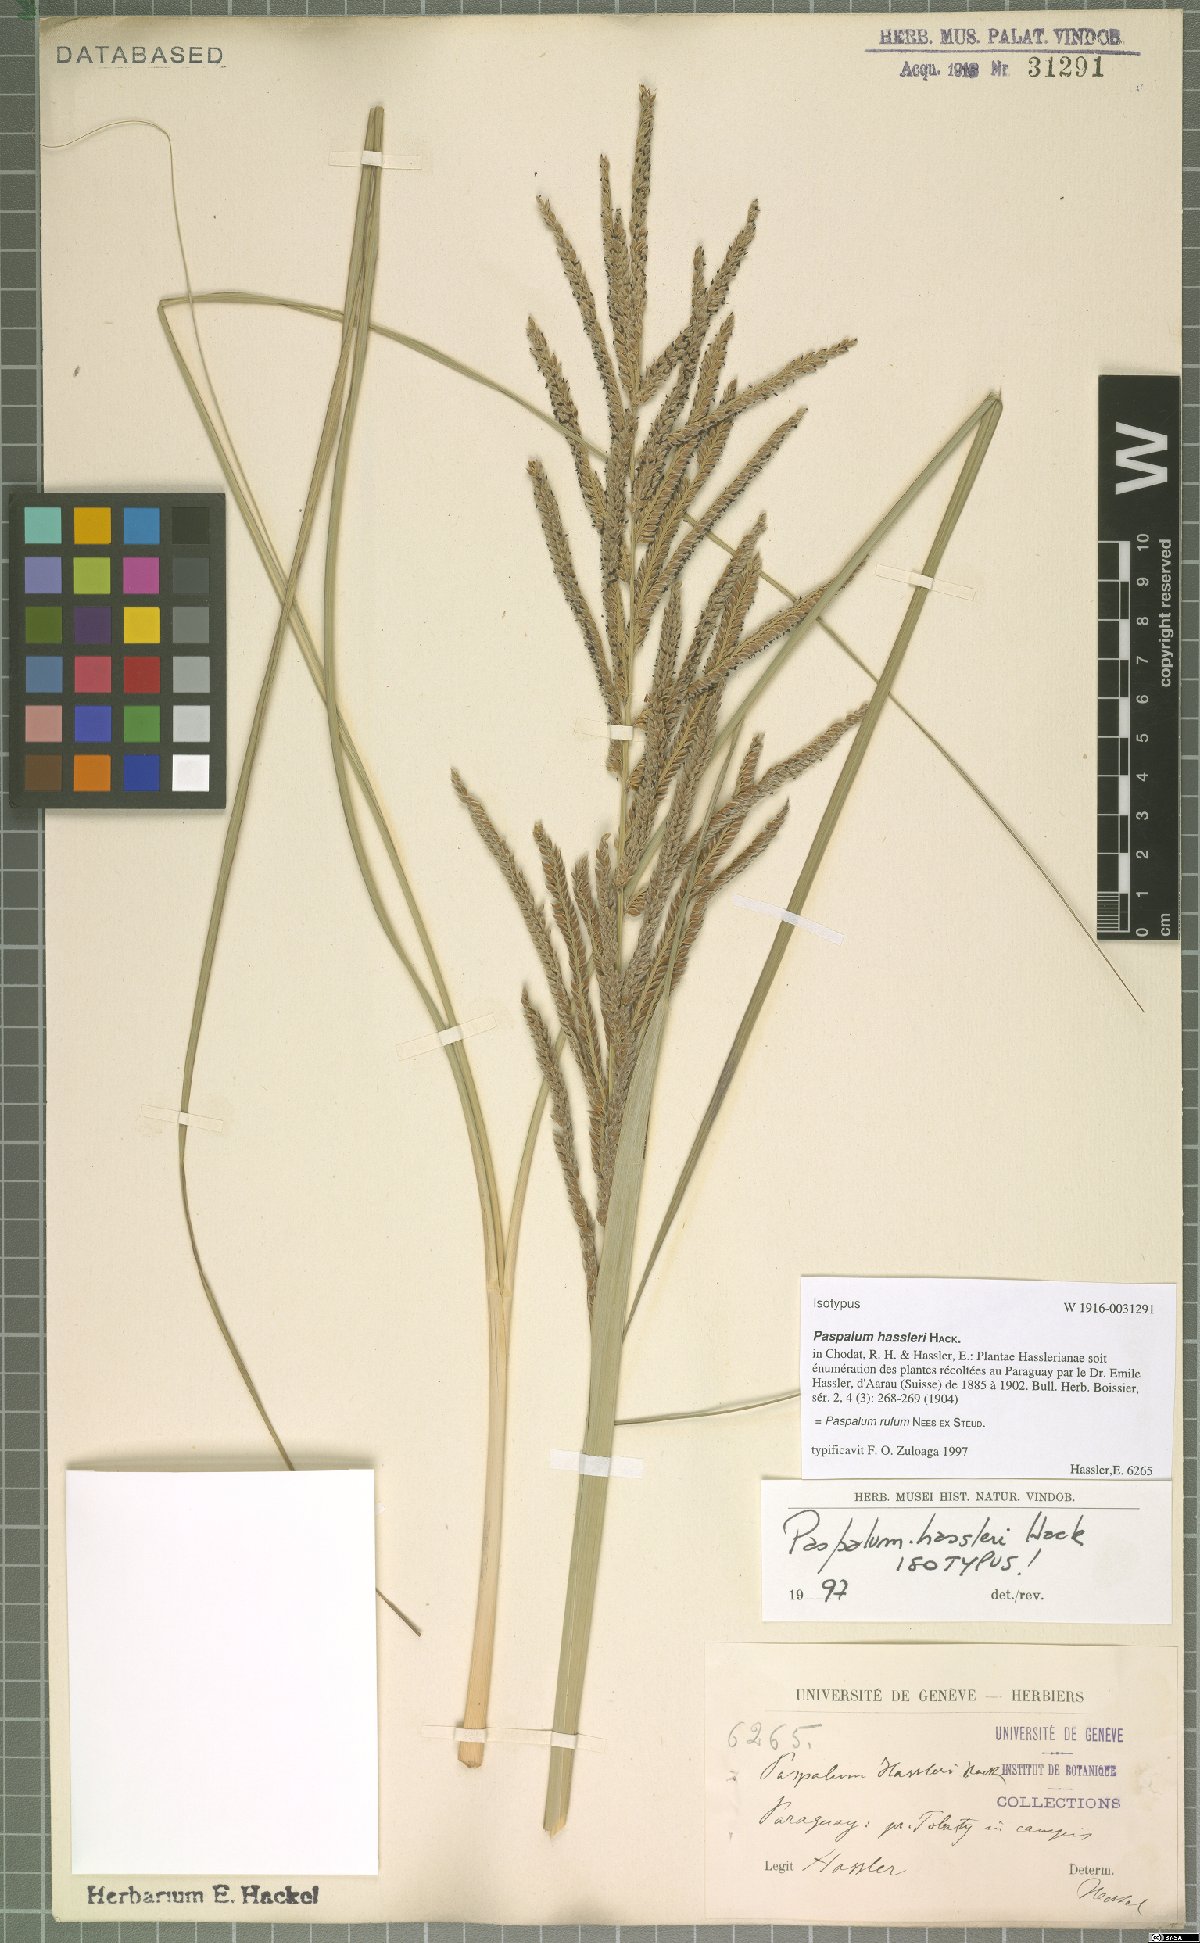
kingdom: Plantae
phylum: Tracheophyta
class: Liliopsida
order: Poales
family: Poaceae
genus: Paspalum
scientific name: Paspalum rufum
